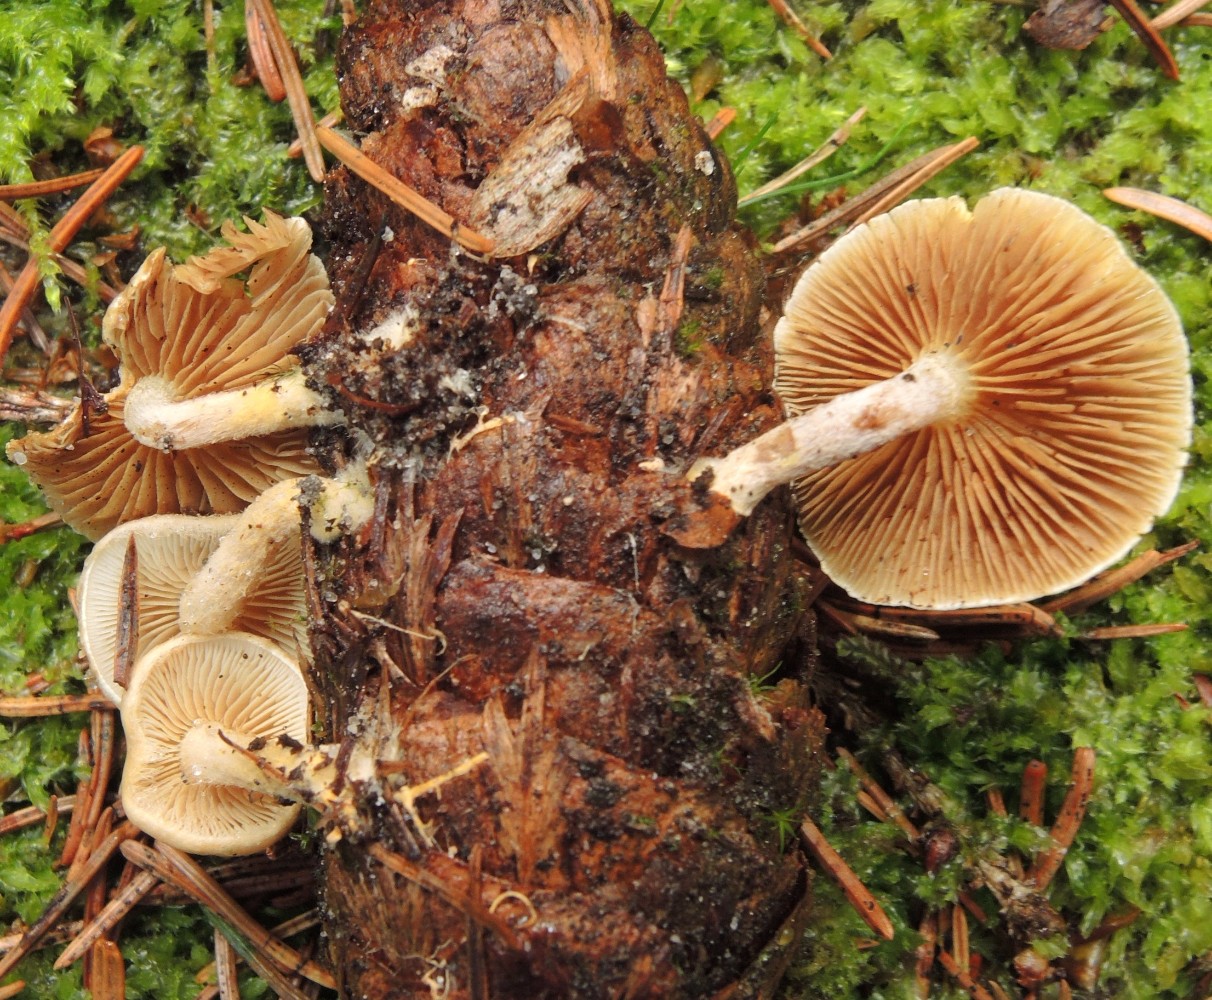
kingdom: Fungi
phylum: Basidiomycota
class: Agaricomycetes
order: Agaricales
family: Strophariaceae
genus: Pholiota
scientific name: Pholiota scamba
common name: dværg-skælhat
